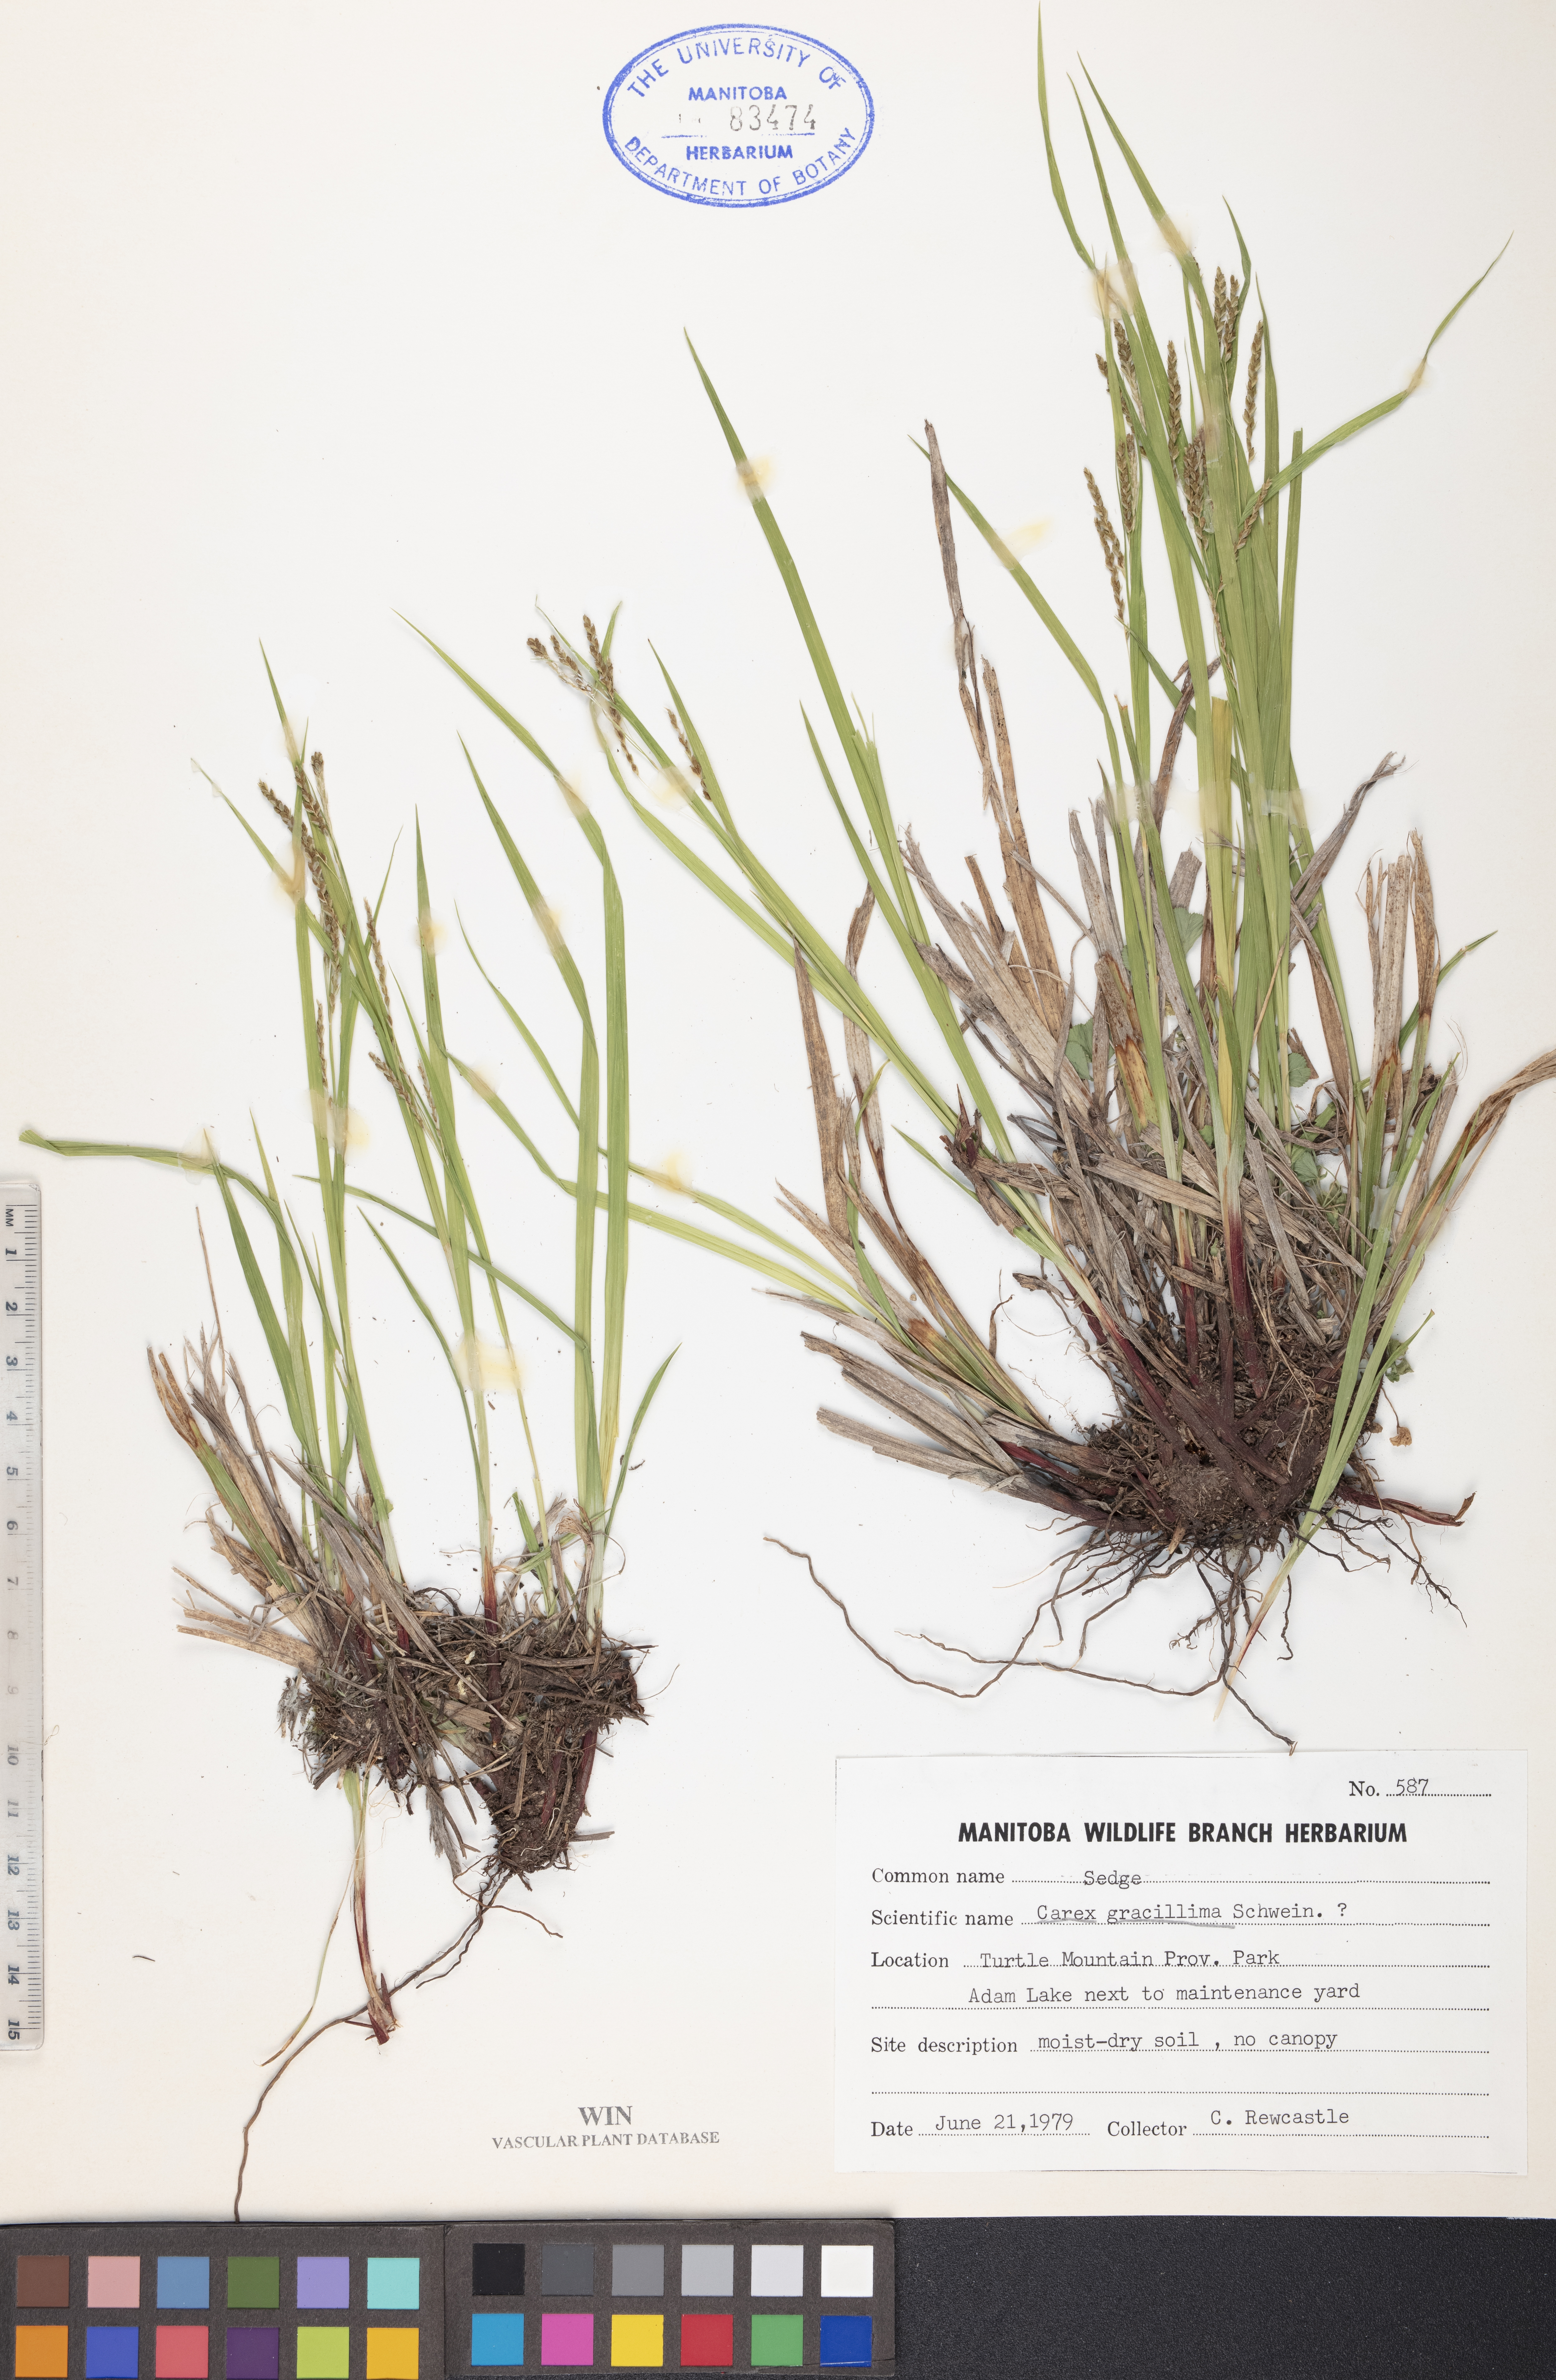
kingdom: Plantae
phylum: Tracheophyta
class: Liliopsida
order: Poales
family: Cyperaceae
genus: Carex
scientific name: Carex gracillima
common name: Graceful sedge
